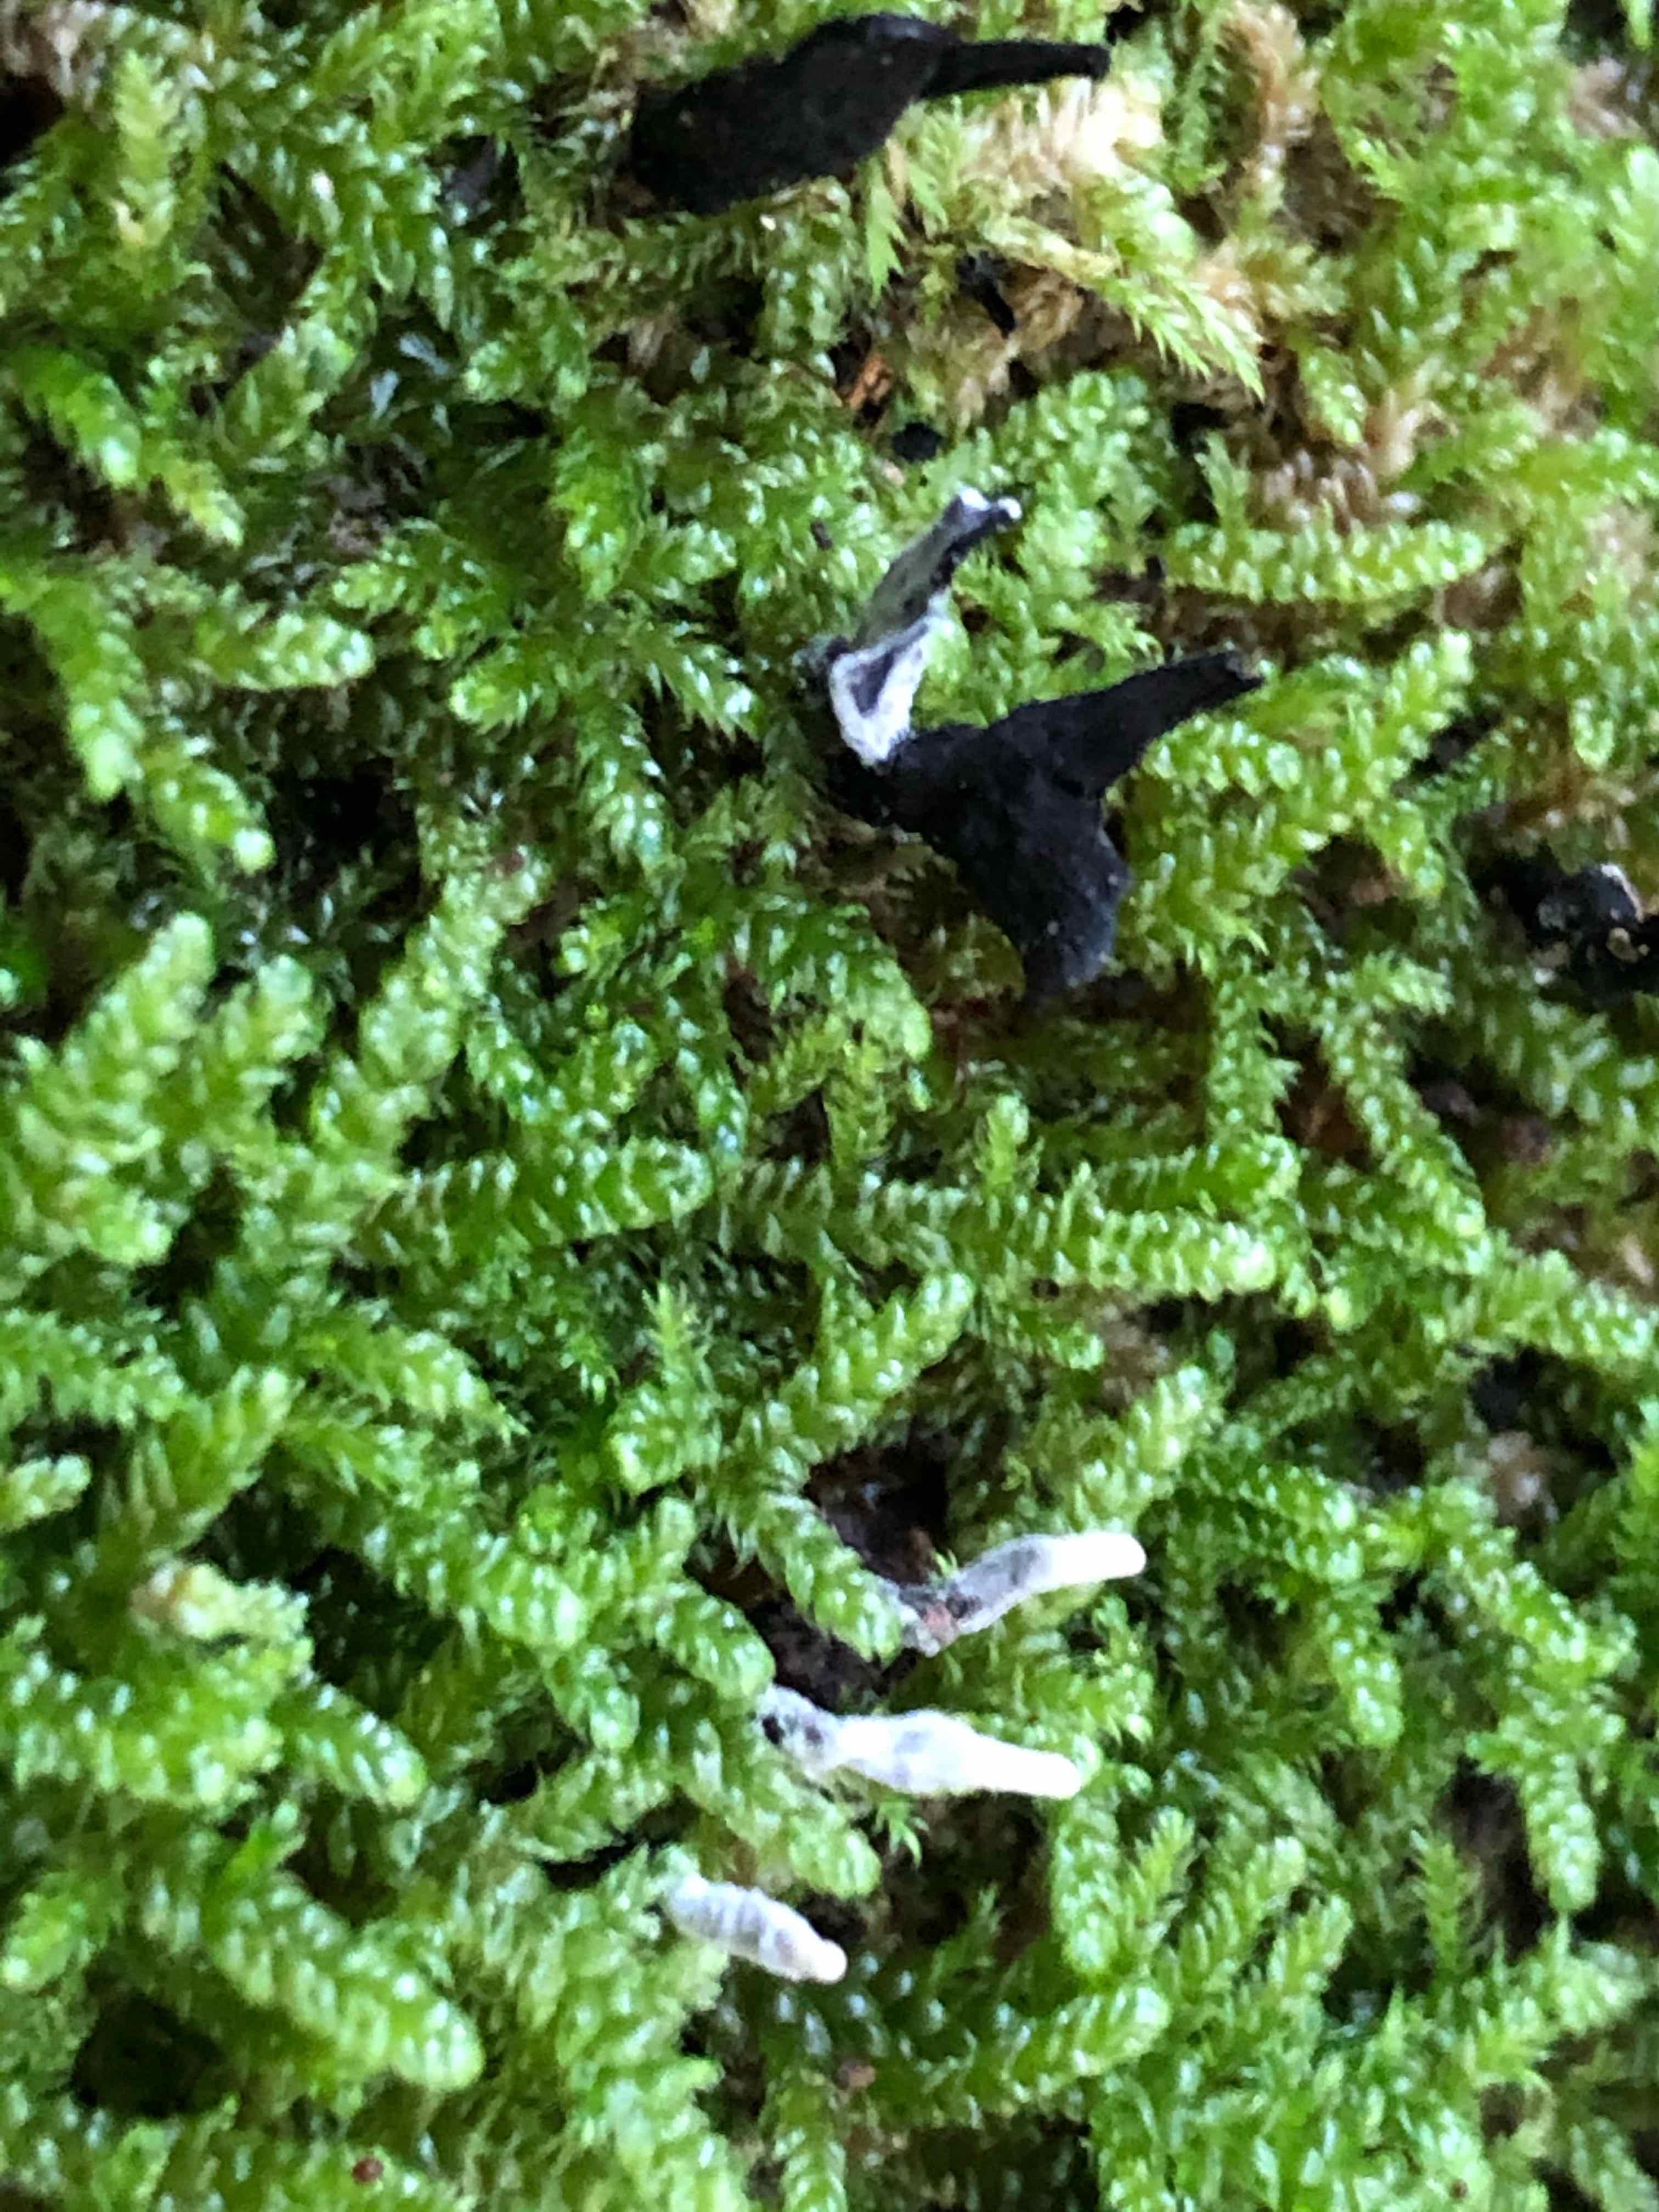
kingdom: Fungi
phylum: Ascomycota
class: Sordariomycetes
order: Xylariales
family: Xylariaceae
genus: Xylaria
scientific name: Xylaria hypoxylon
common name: grenet stødsvamp
